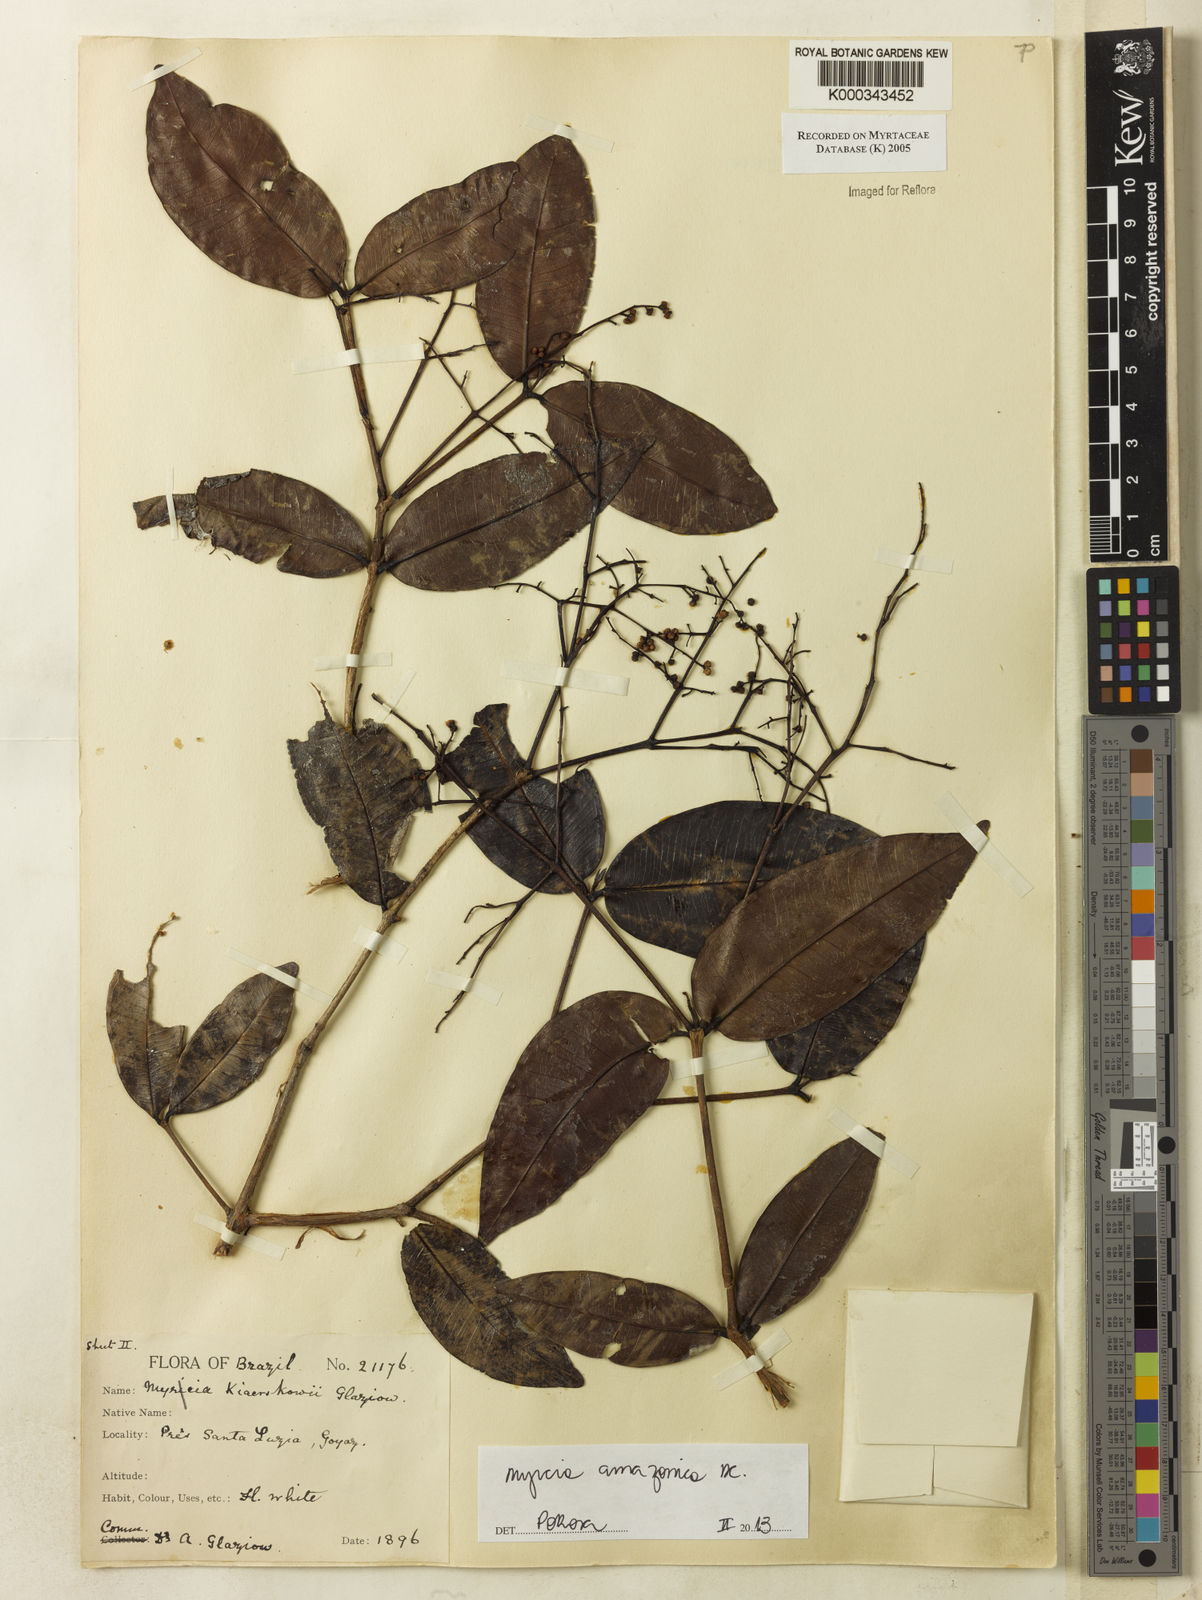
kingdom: Plantae
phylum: Tracheophyta
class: Magnoliopsida
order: Myrtales
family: Myrtaceae
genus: Myrcia
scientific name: Myrcia
